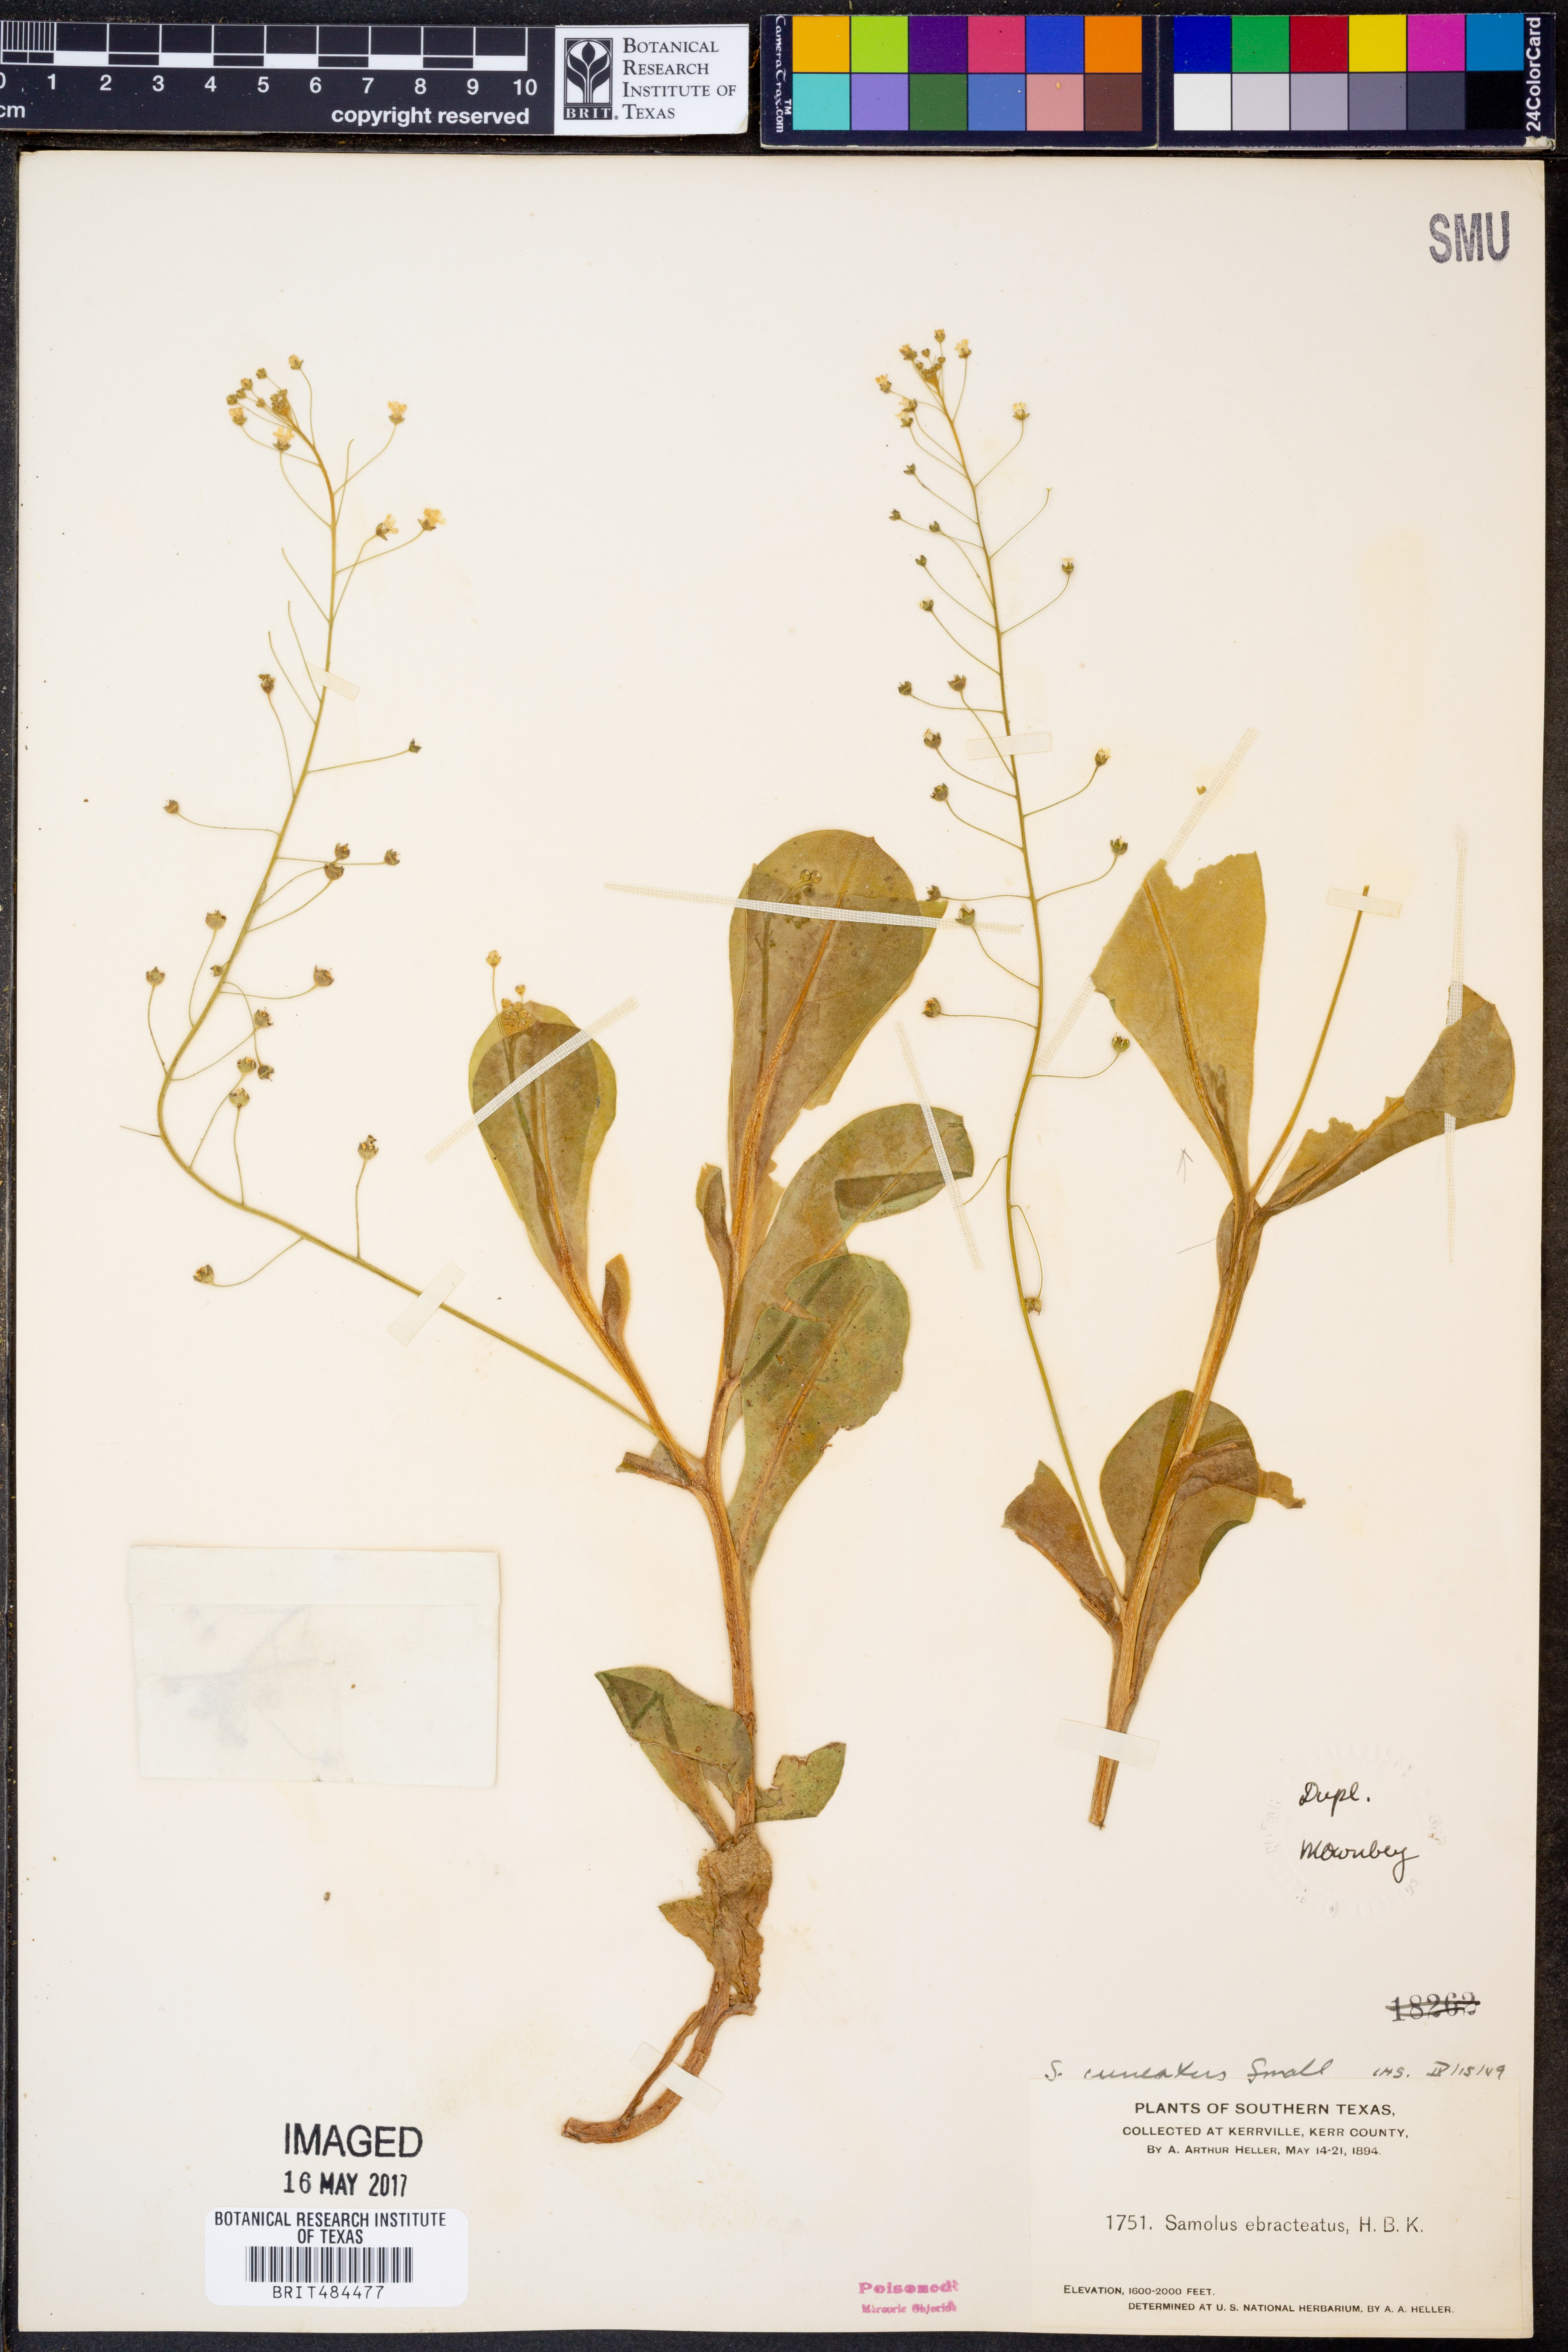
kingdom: Plantae
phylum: Tracheophyta
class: Magnoliopsida
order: Ericales
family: Primulaceae
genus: Samolus
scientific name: Samolus ebracteatus
